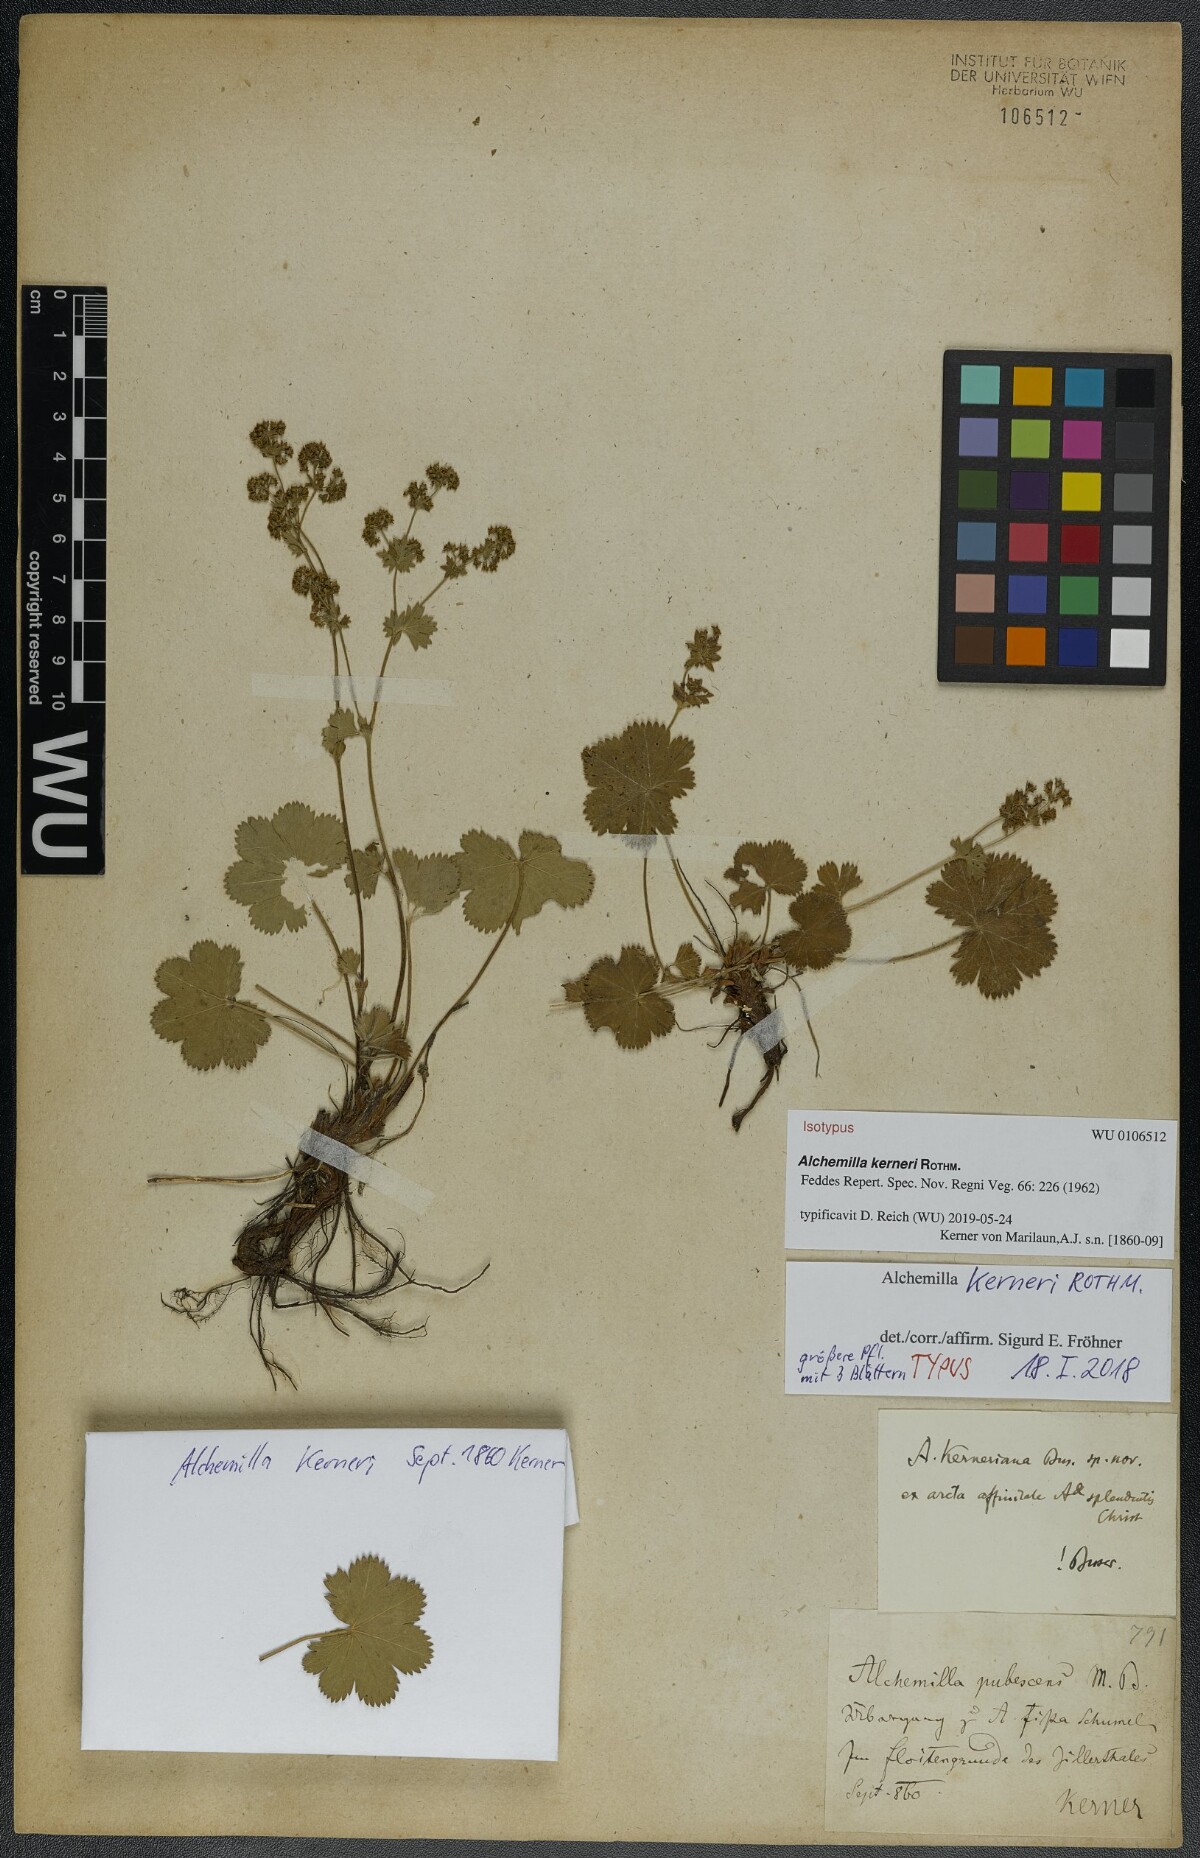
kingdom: Plantae
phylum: Tracheophyta
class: Magnoliopsida
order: Rosales
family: Rosaceae
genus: Alchemilla
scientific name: Alchemilla kerneri
